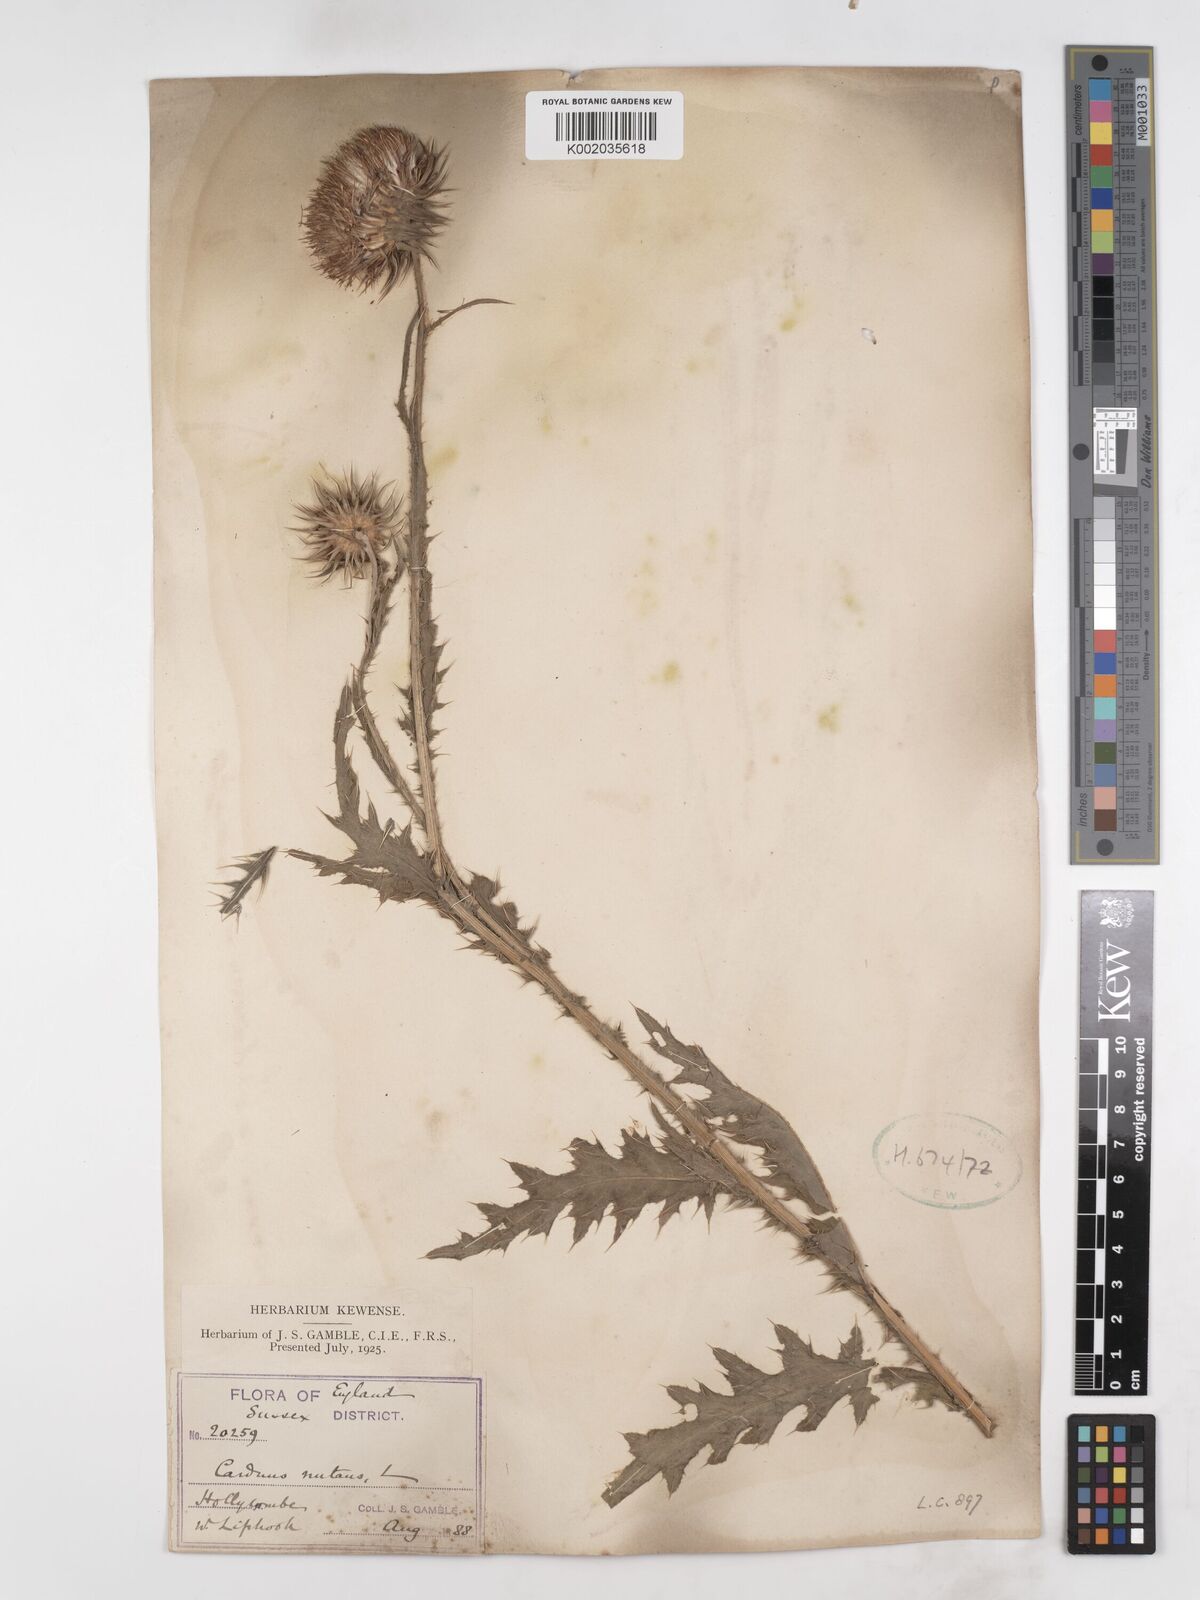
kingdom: Plantae
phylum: Tracheophyta
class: Magnoliopsida
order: Asterales
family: Asteraceae
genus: Carduus
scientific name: Carduus nutans
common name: Musk thistle
